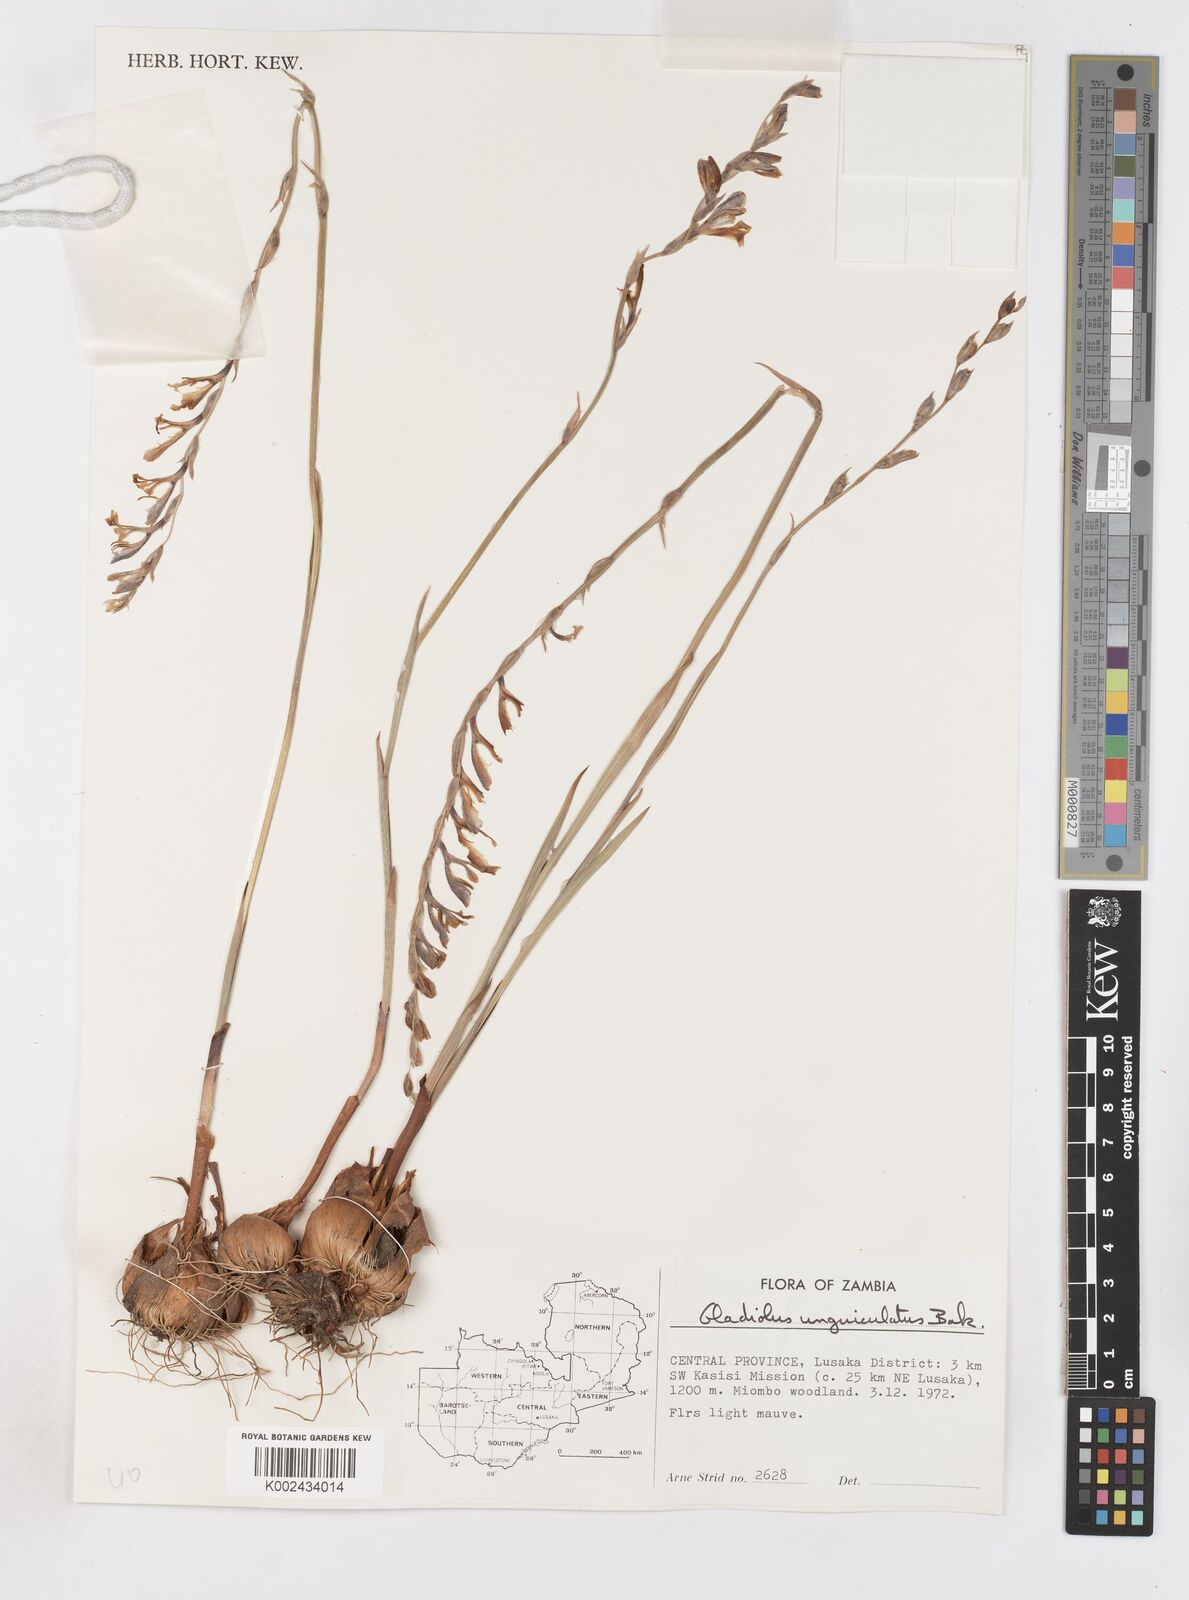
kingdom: Plantae
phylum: Tracheophyta
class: Liliopsida
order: Asparagales
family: Iridaceae
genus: Gladiolus
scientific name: Gladiolus atropurpureus
